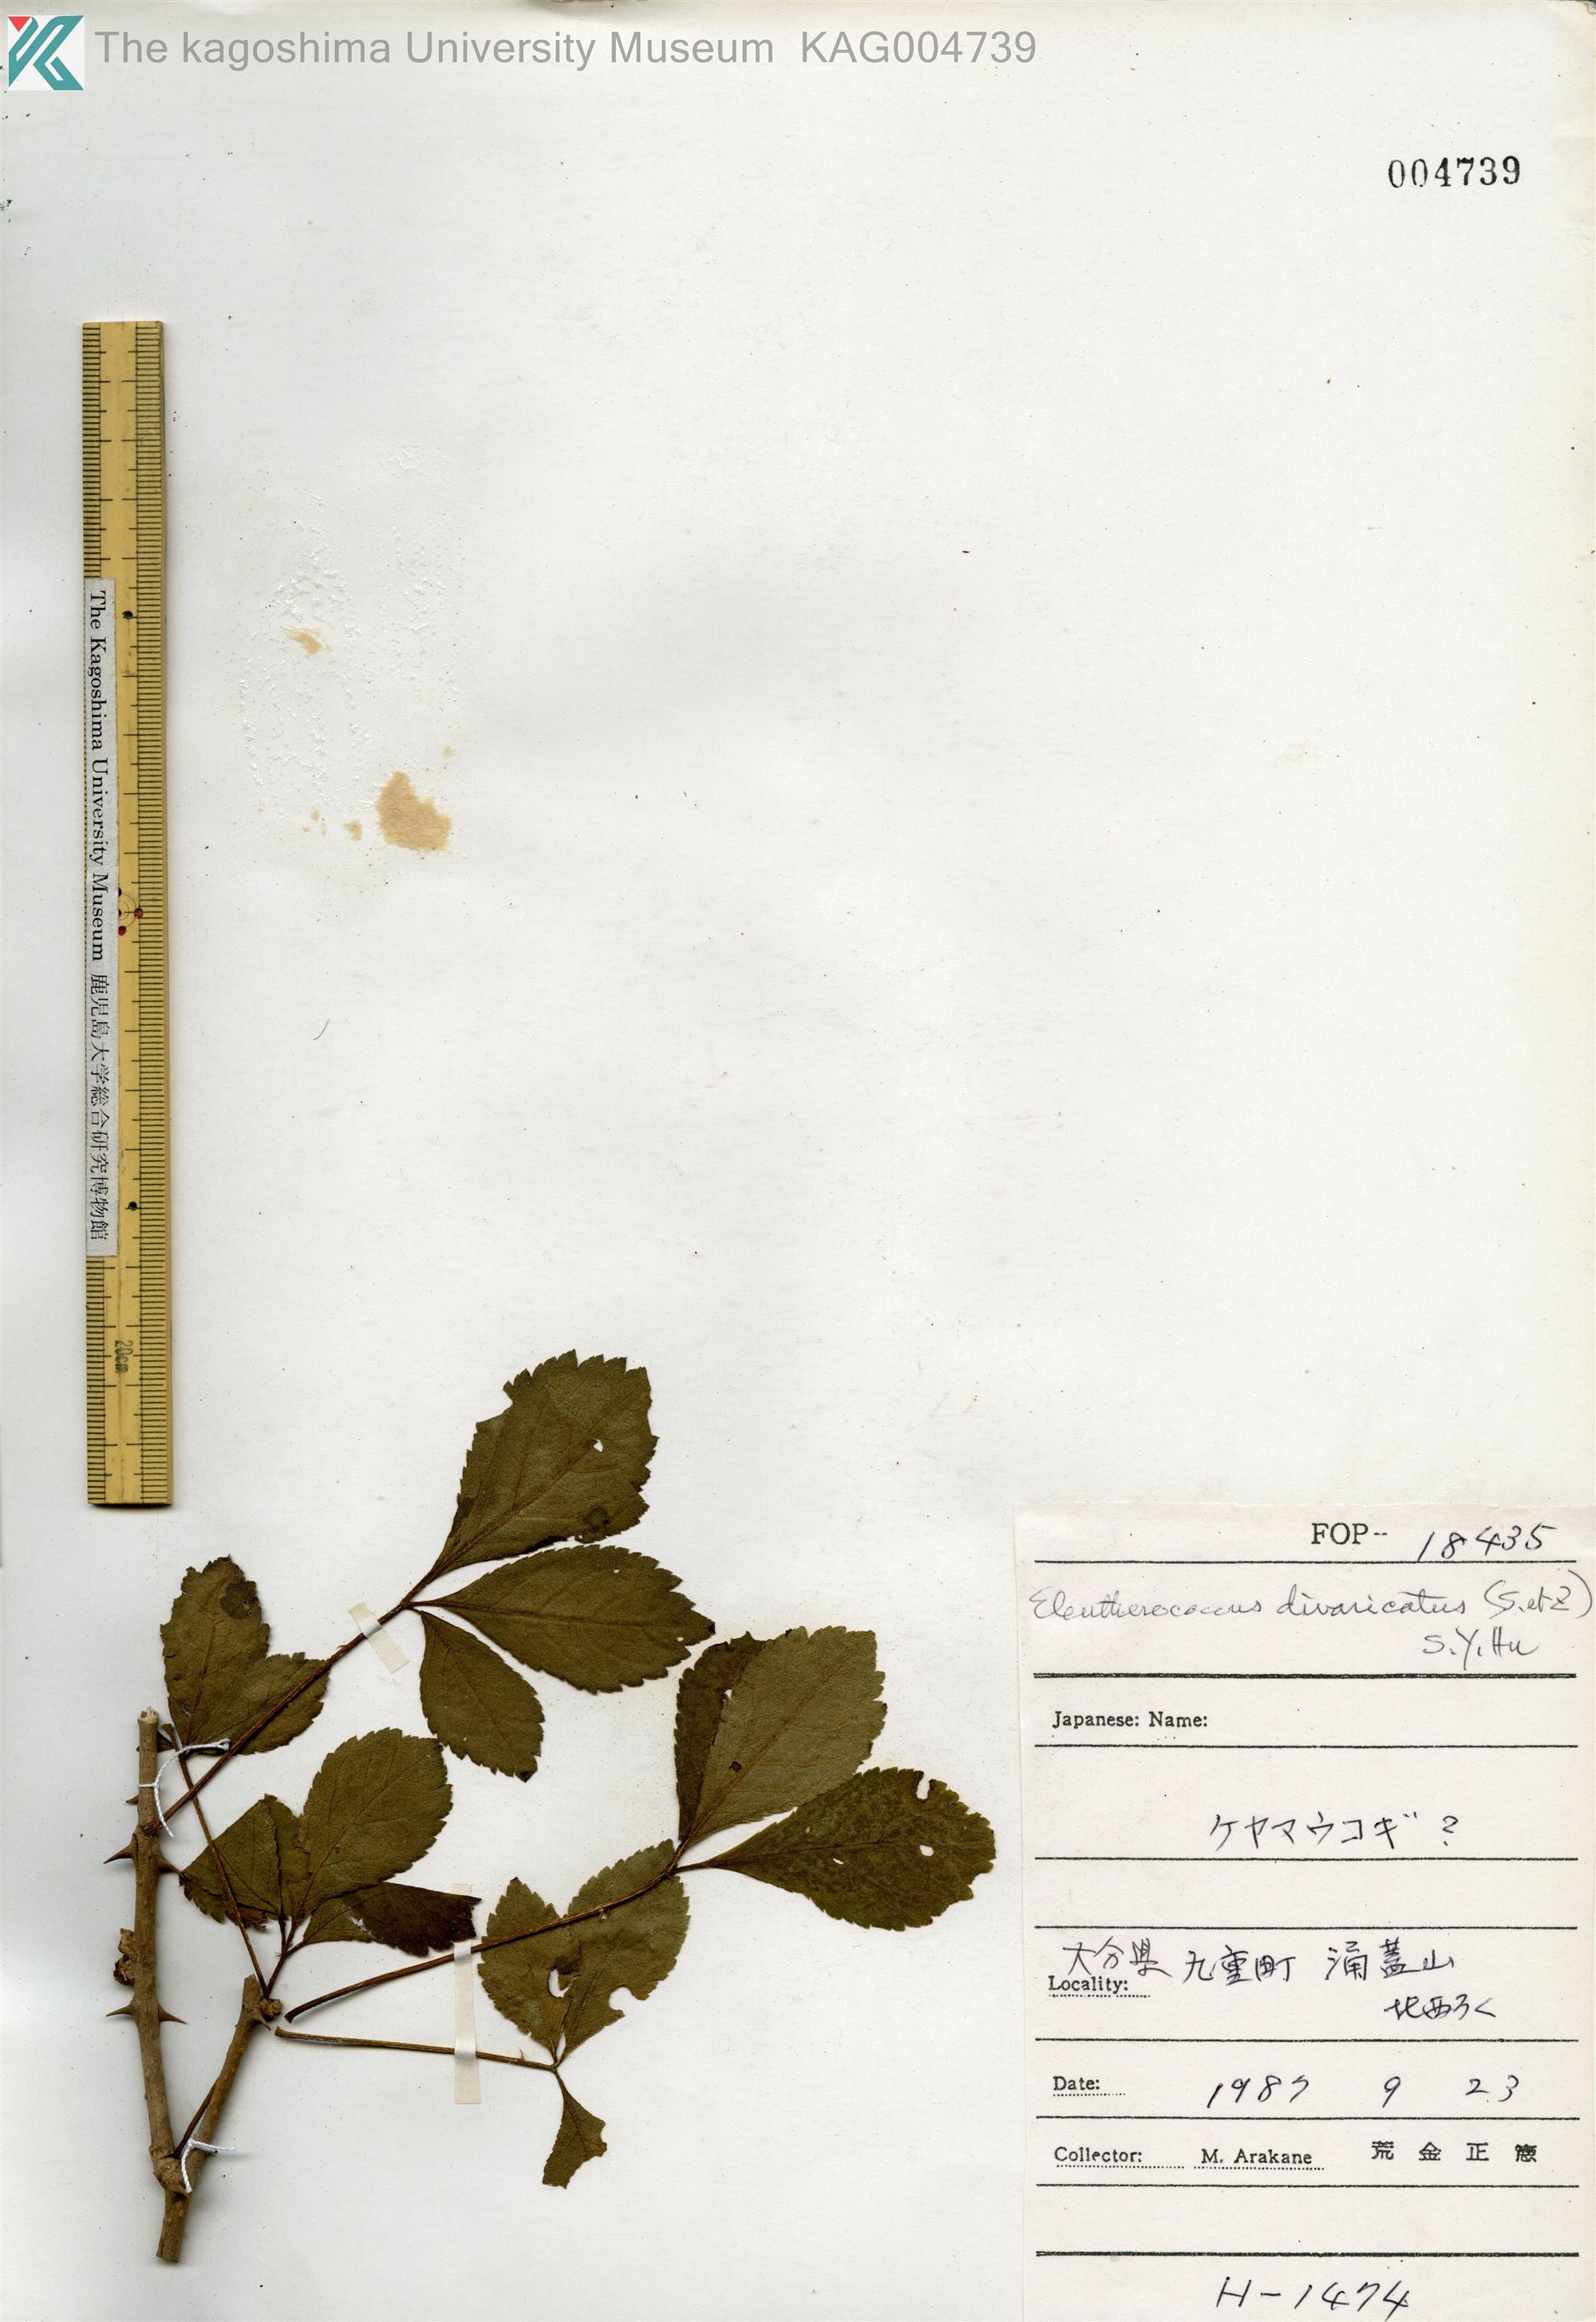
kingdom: Plantae
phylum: Tracheophyta
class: Magnoliopsida
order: Apiales
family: Araliaceae
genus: Eleutherococcus
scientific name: Eleutherococcus divaricatus
